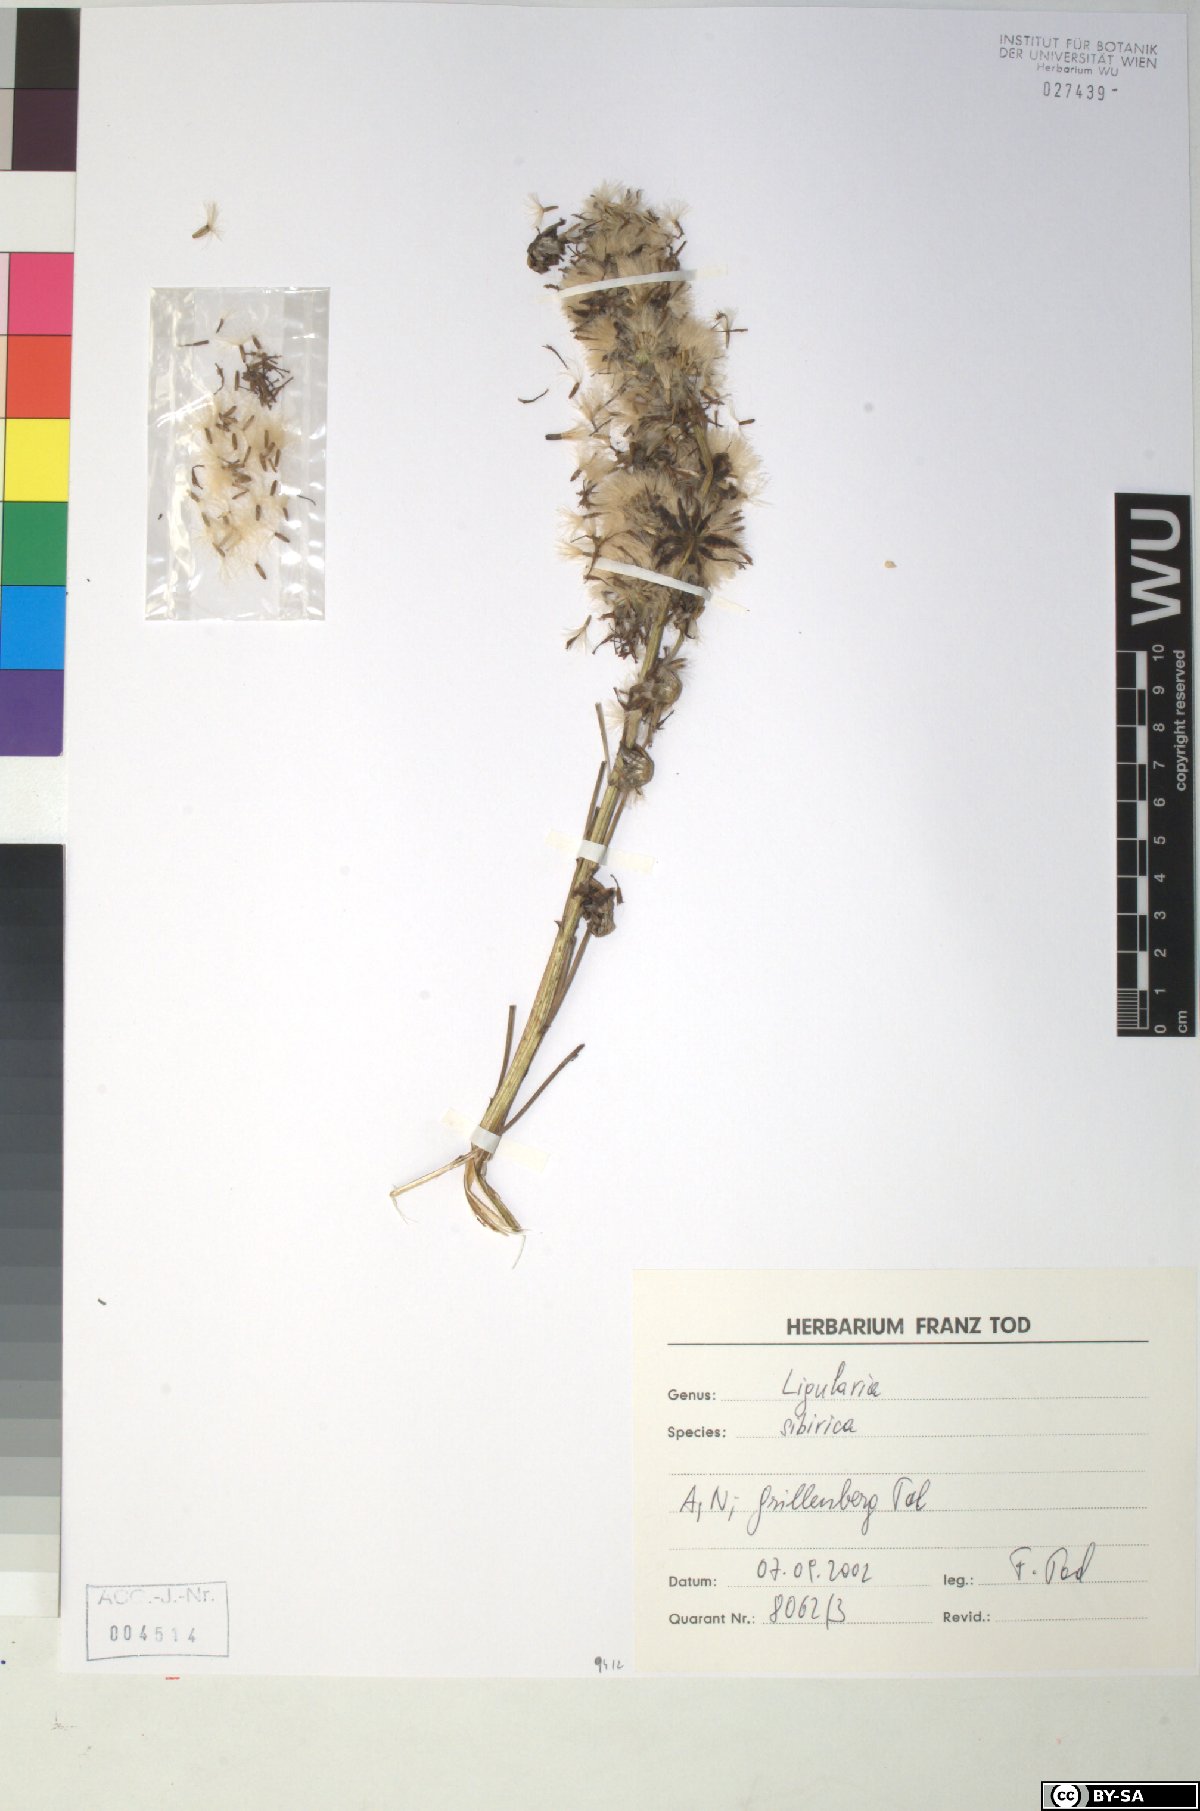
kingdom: Plantae
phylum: Tracheophyta
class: Magnoliopsida
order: Asterales
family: Asteraceae
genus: Ligularia
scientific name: Ligularia sibirica
